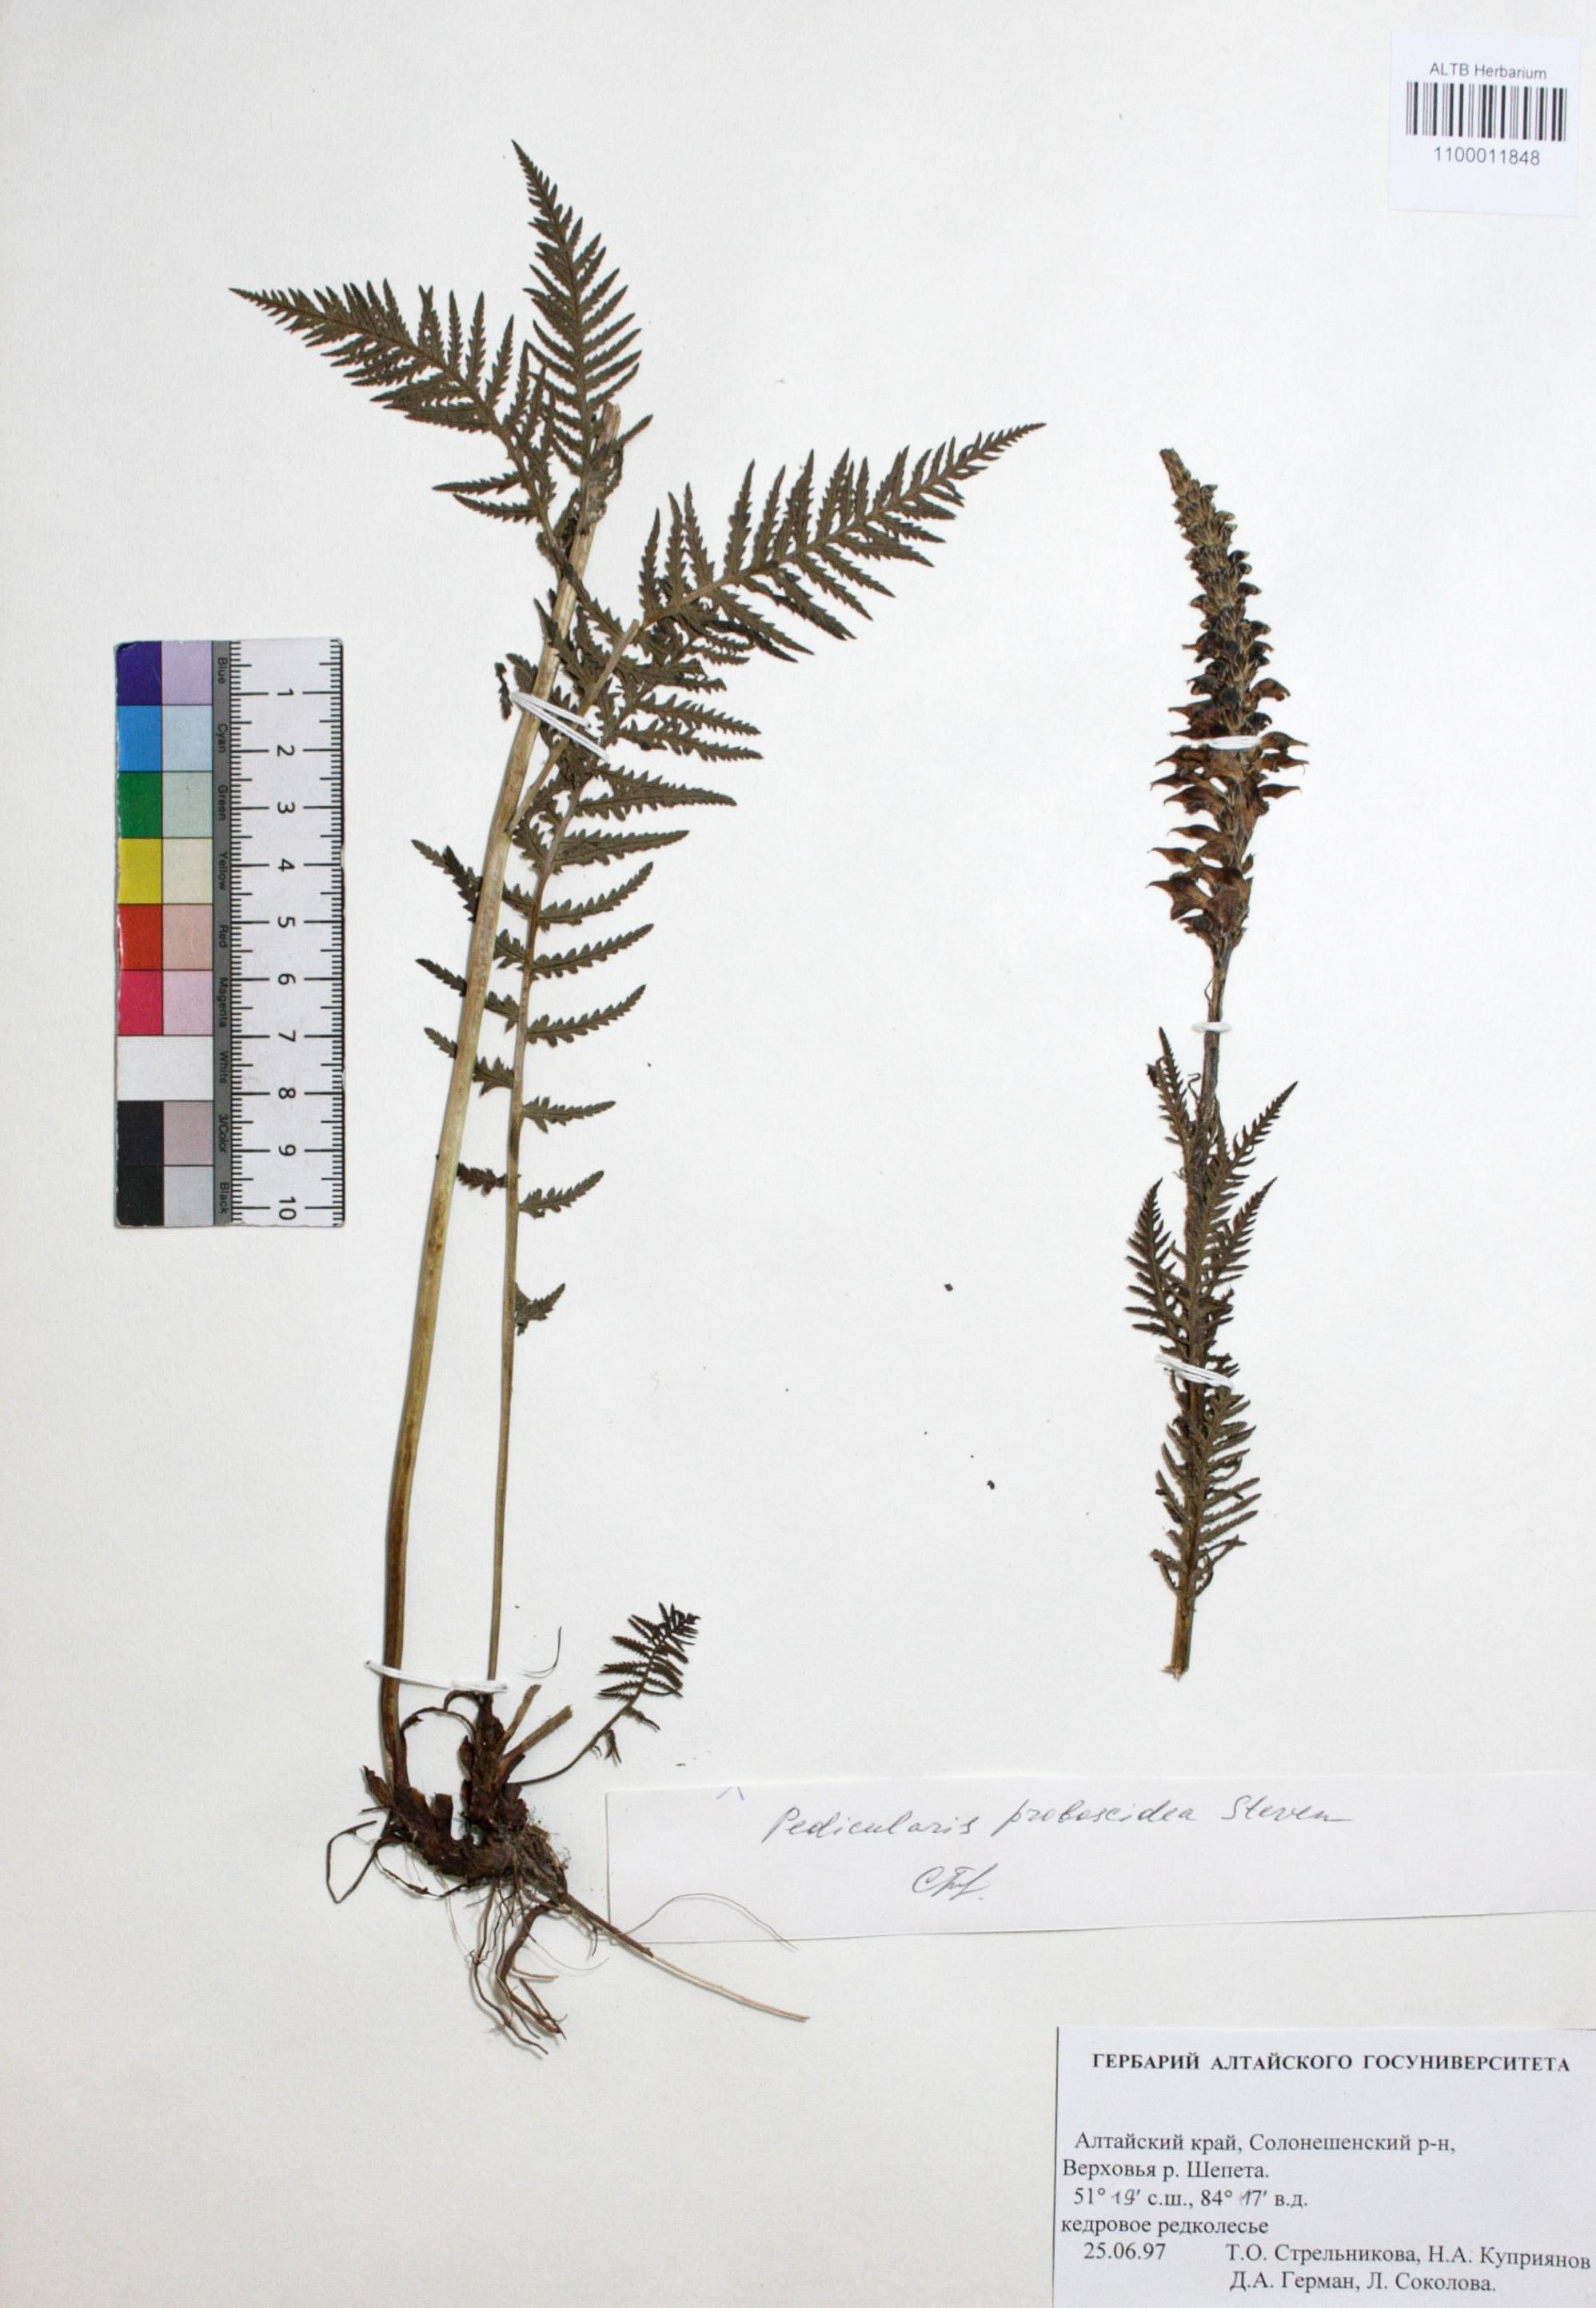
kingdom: Plantae
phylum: Tracheophyta
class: Magnoliopsida
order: Lamiales
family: Orobanchaceae
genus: Pedicularis
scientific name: Pedicularis proboscidea
